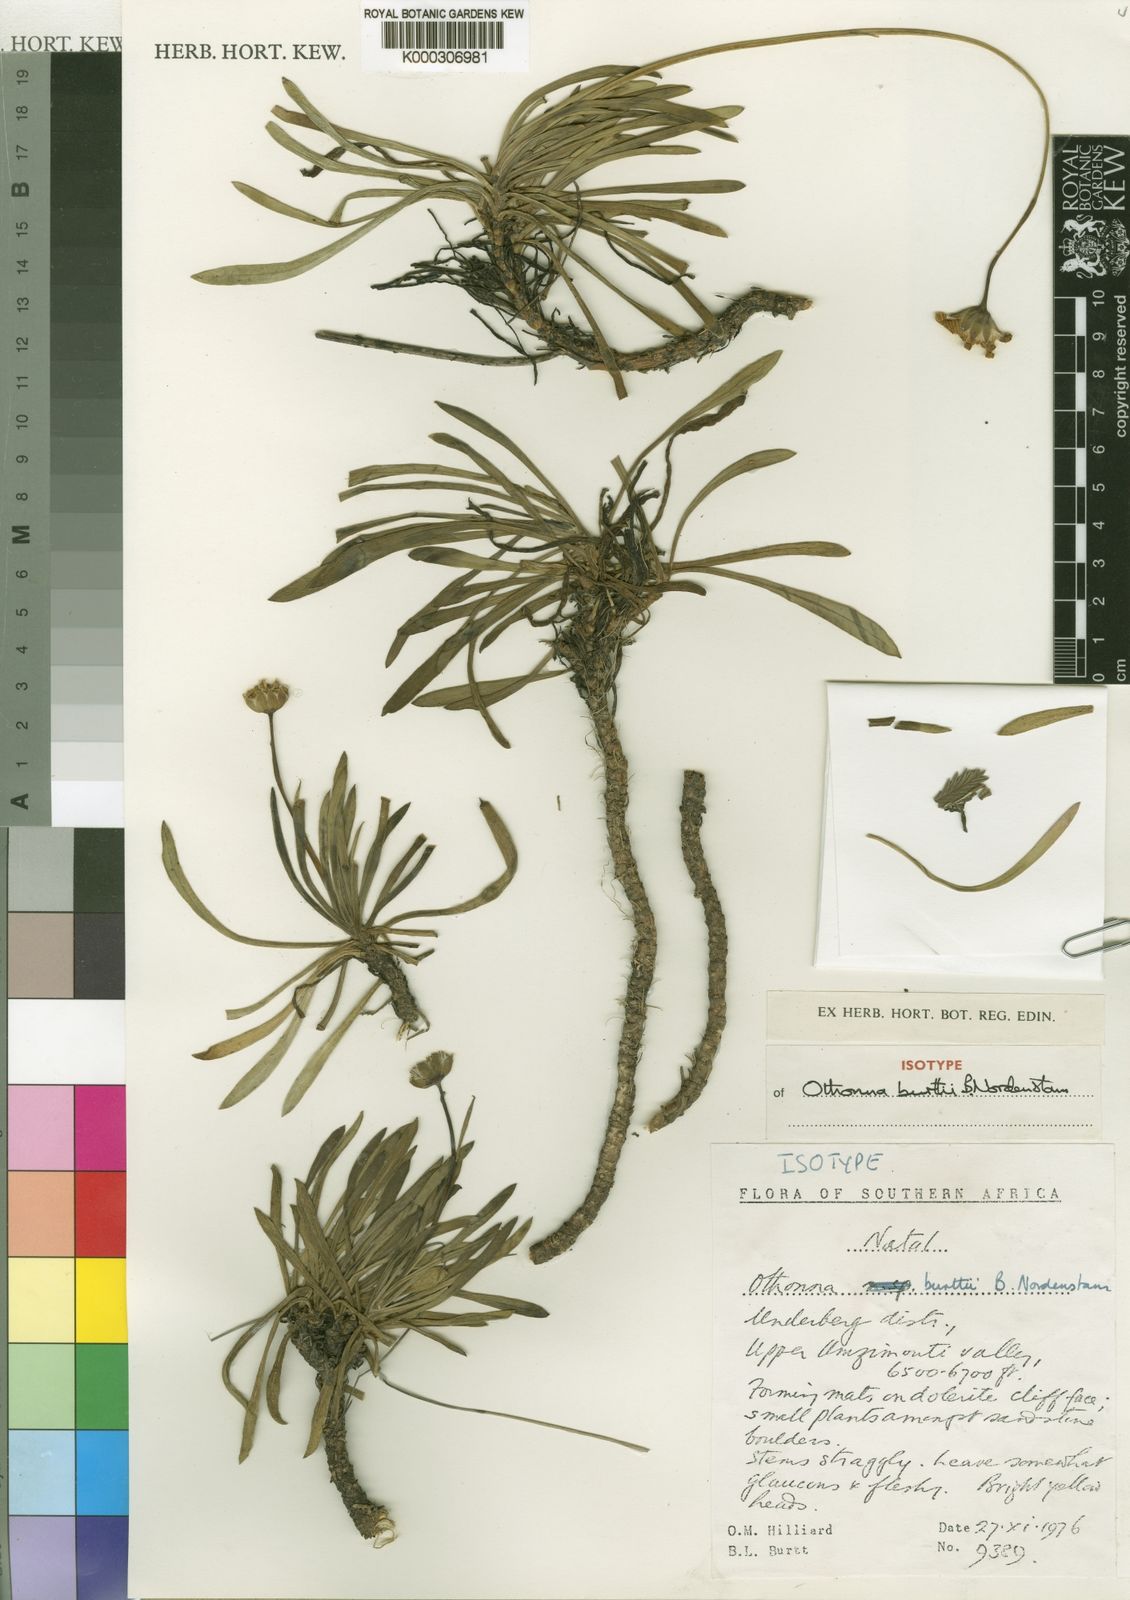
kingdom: Plantae
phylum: Tracheophyta
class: Magnoliopsida
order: Asterales
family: Asteraceae
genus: Othonna
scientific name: Othonna burttii
